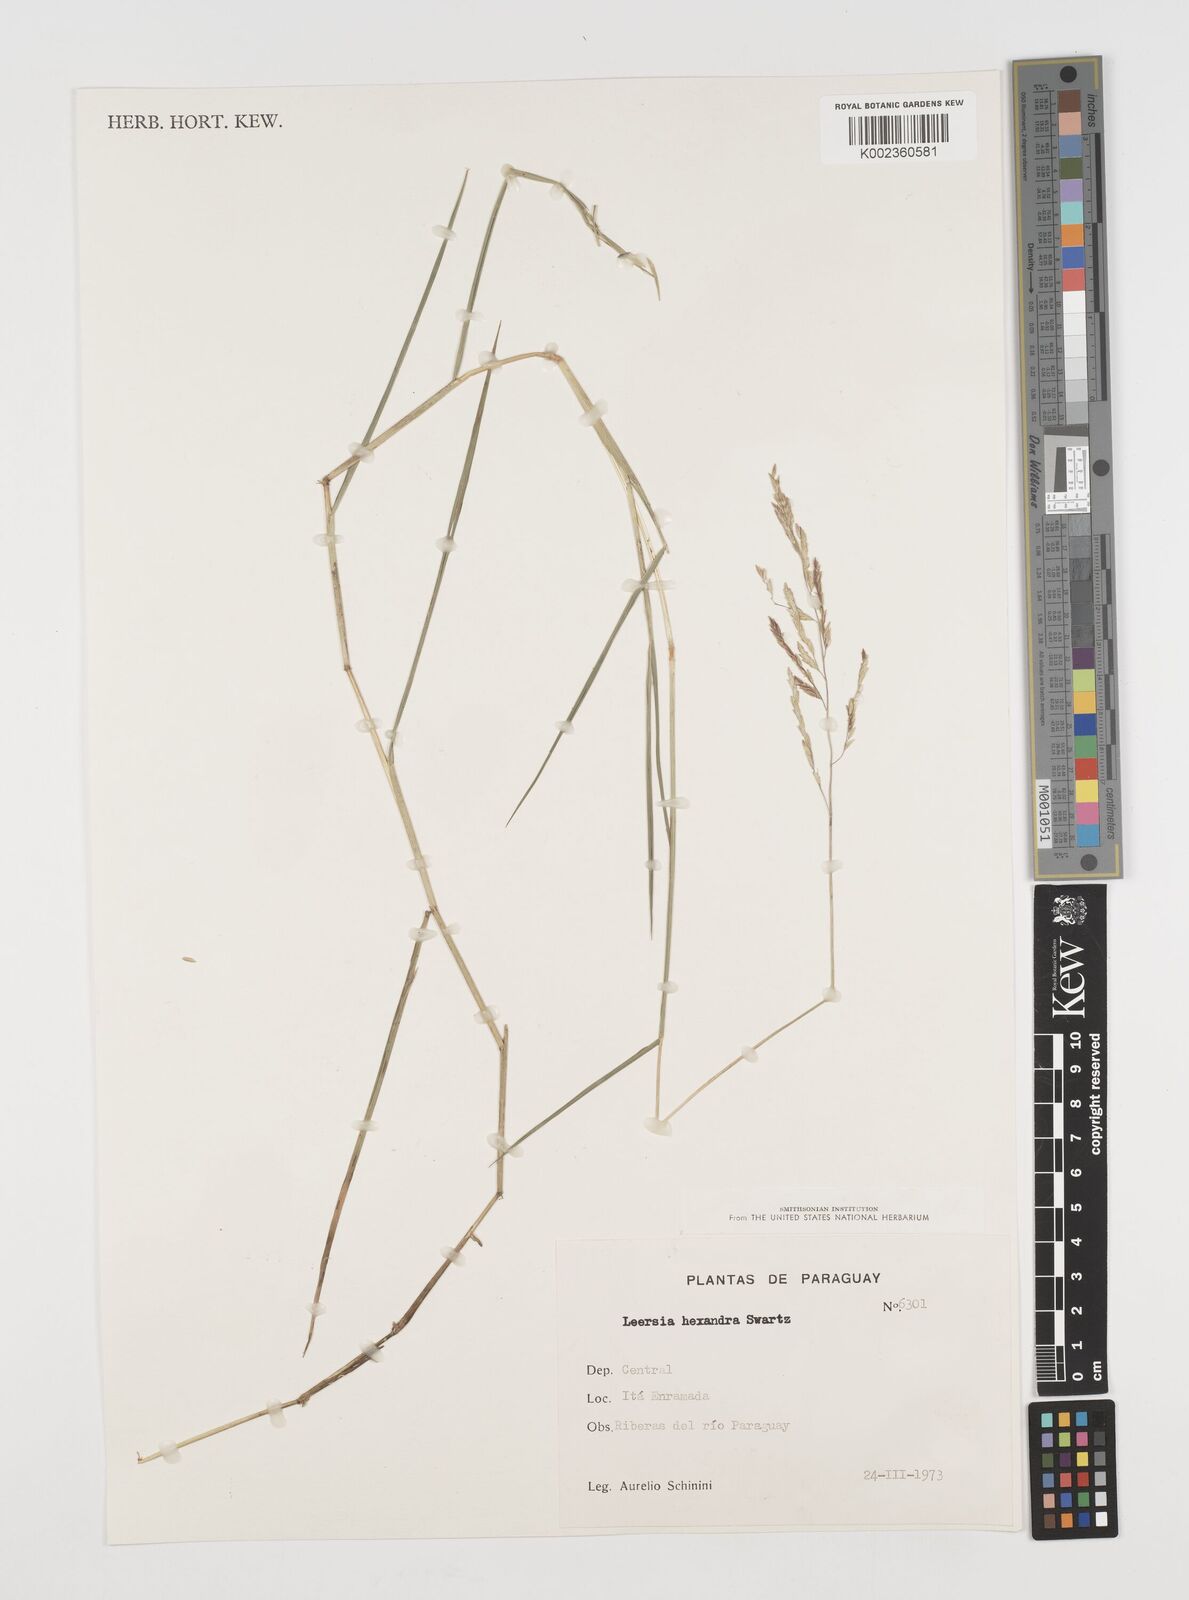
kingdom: Plantae
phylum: Tracheophyta
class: Liliopsida
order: Poales
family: Poaceae
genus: Leersia
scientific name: Leersia hexandra
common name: Southern cut grass
